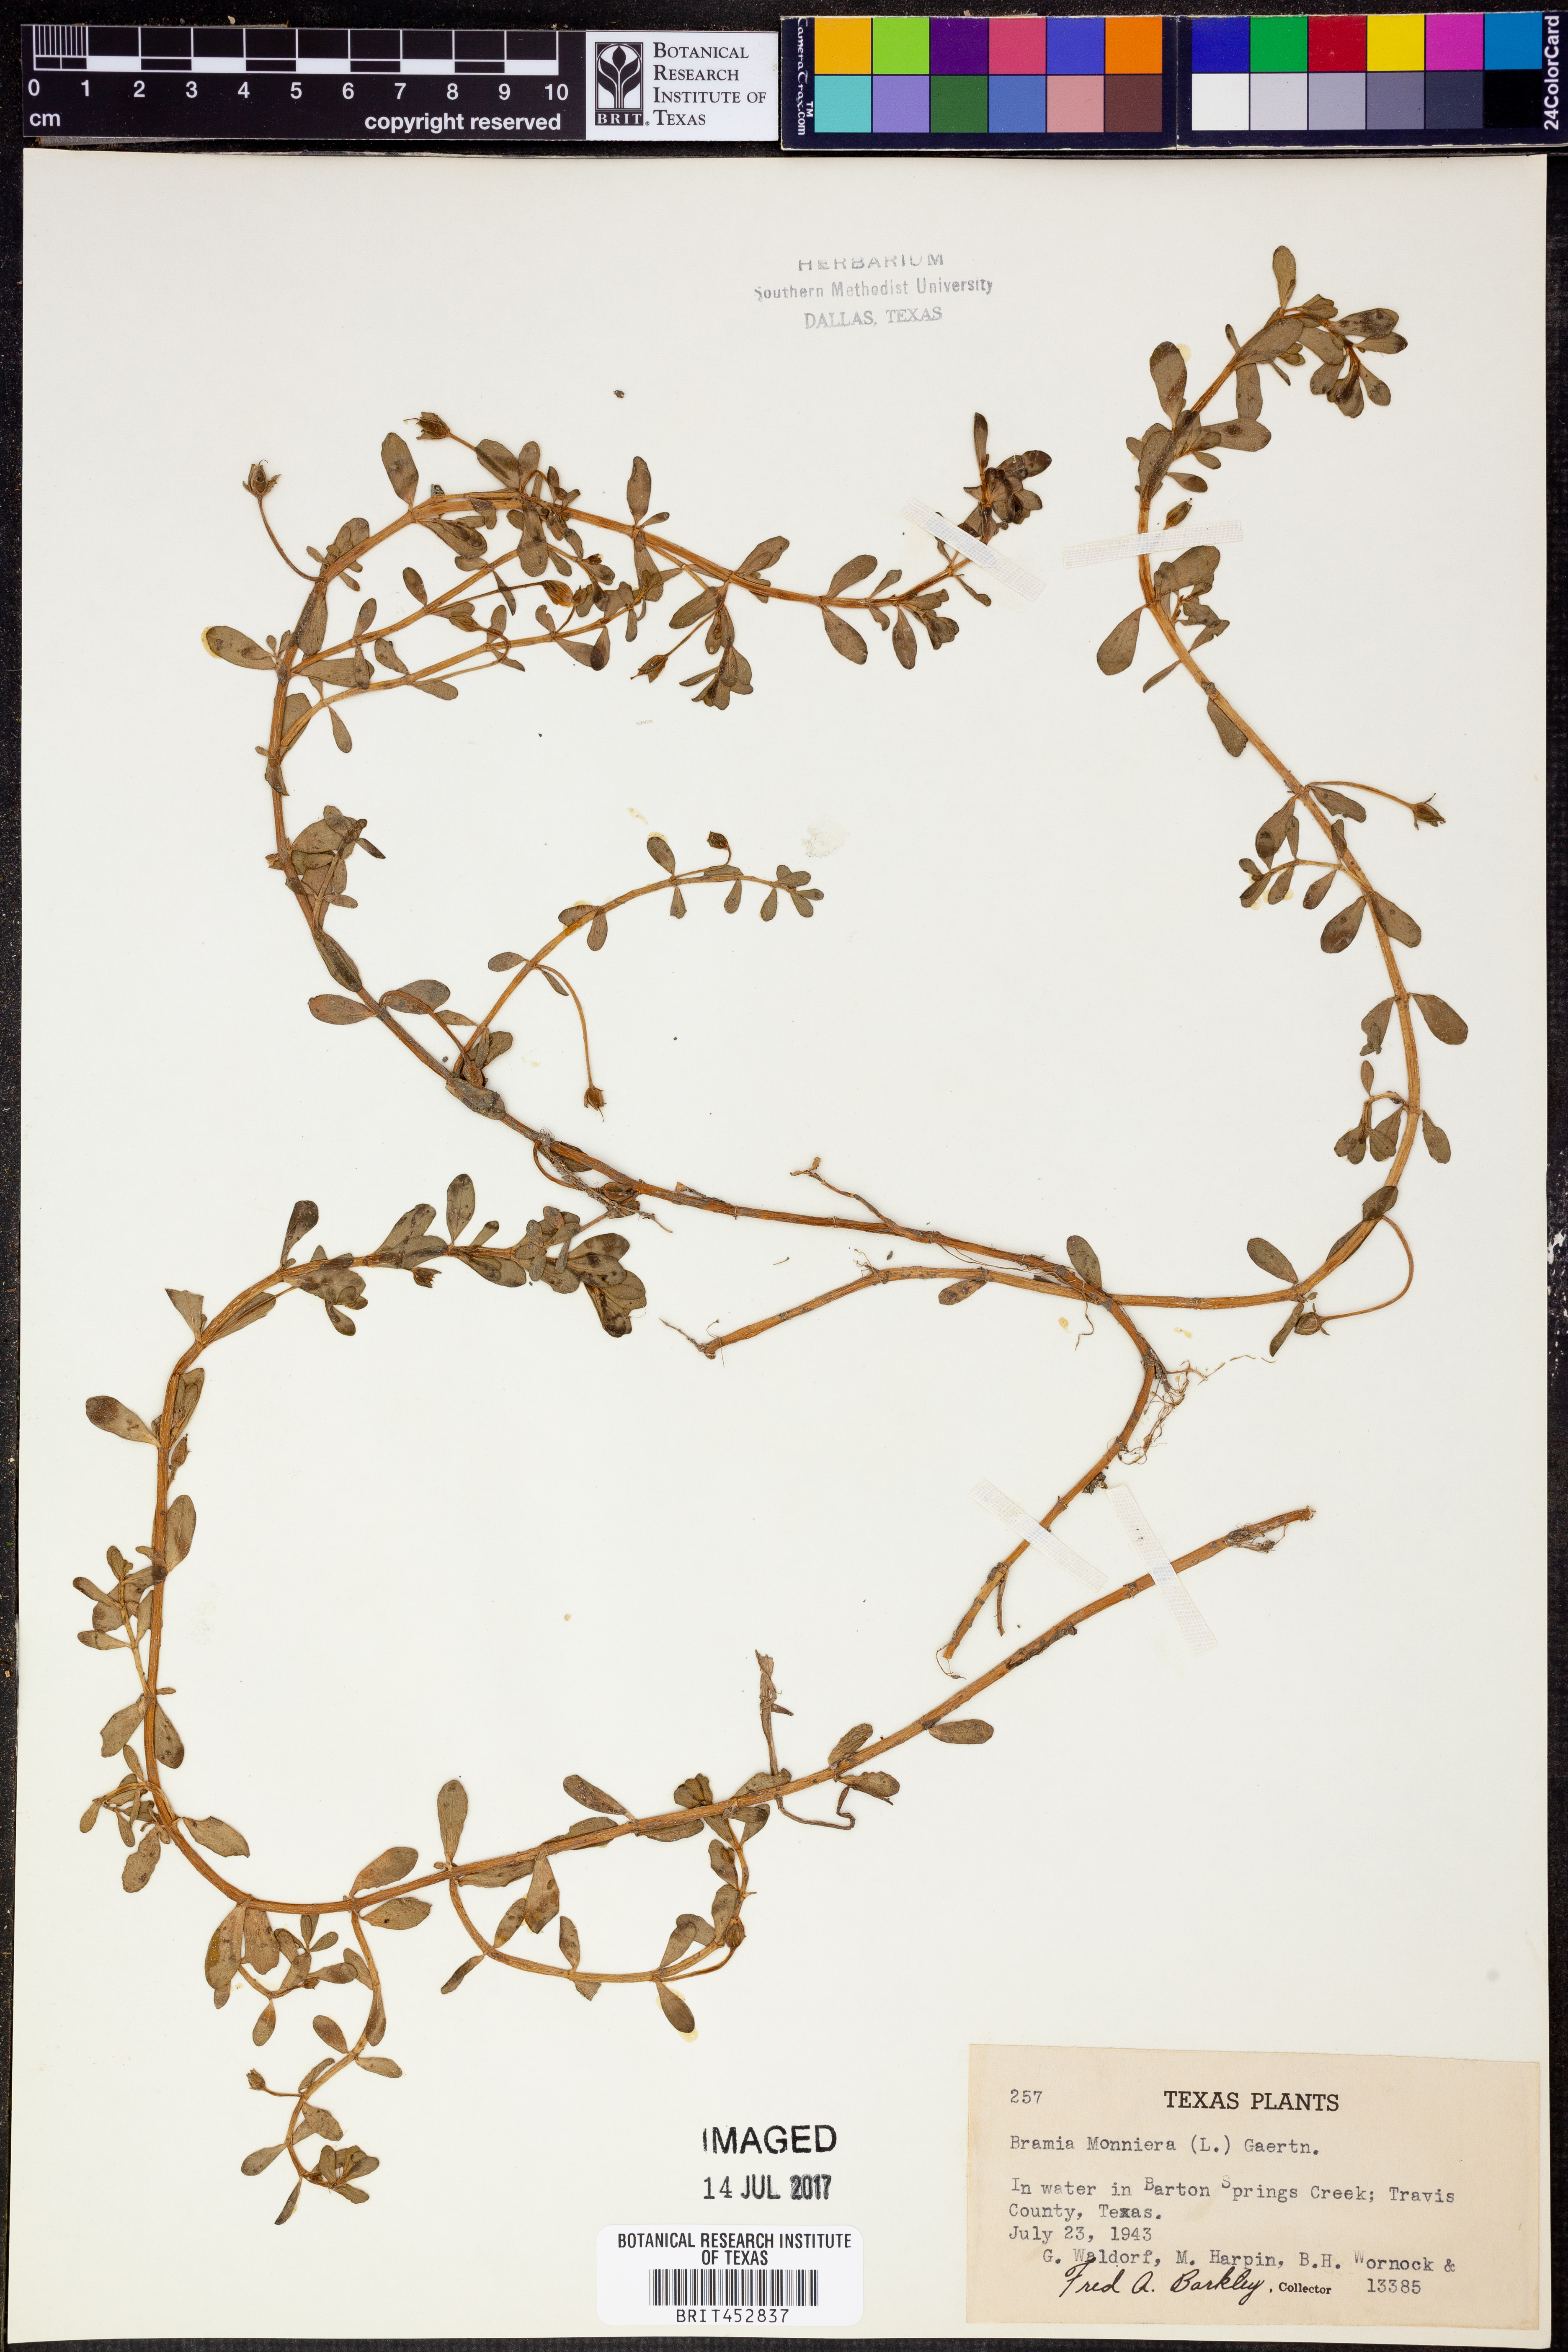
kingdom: Plantae
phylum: Tracheophyta
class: Magnoliopsida
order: Lamiales
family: Plantaginaceae
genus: Bacopa
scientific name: Bacopa monnieri
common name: Indian-pennywort
